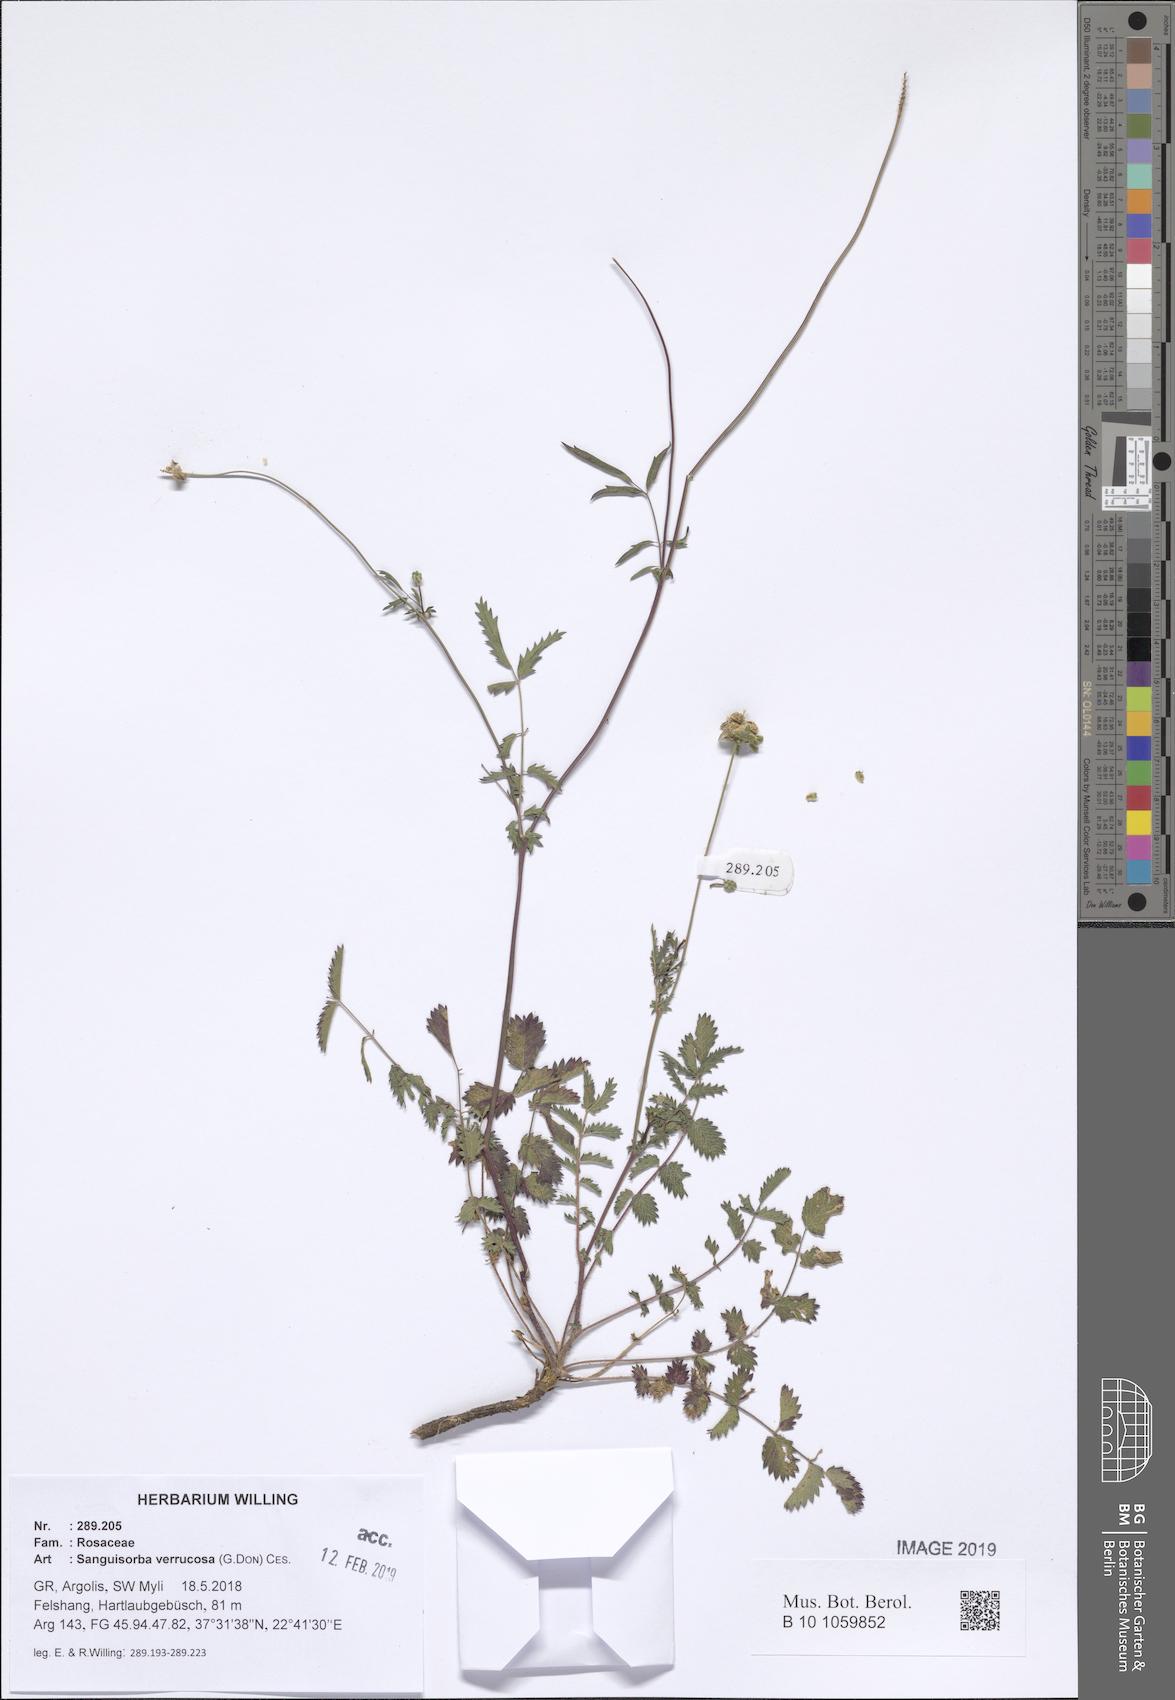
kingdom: Plantae
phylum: Tracheophyta
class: Magnoliopsida
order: Rosales
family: Rosaceae
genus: Poterium
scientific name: Poterium verrucosum
